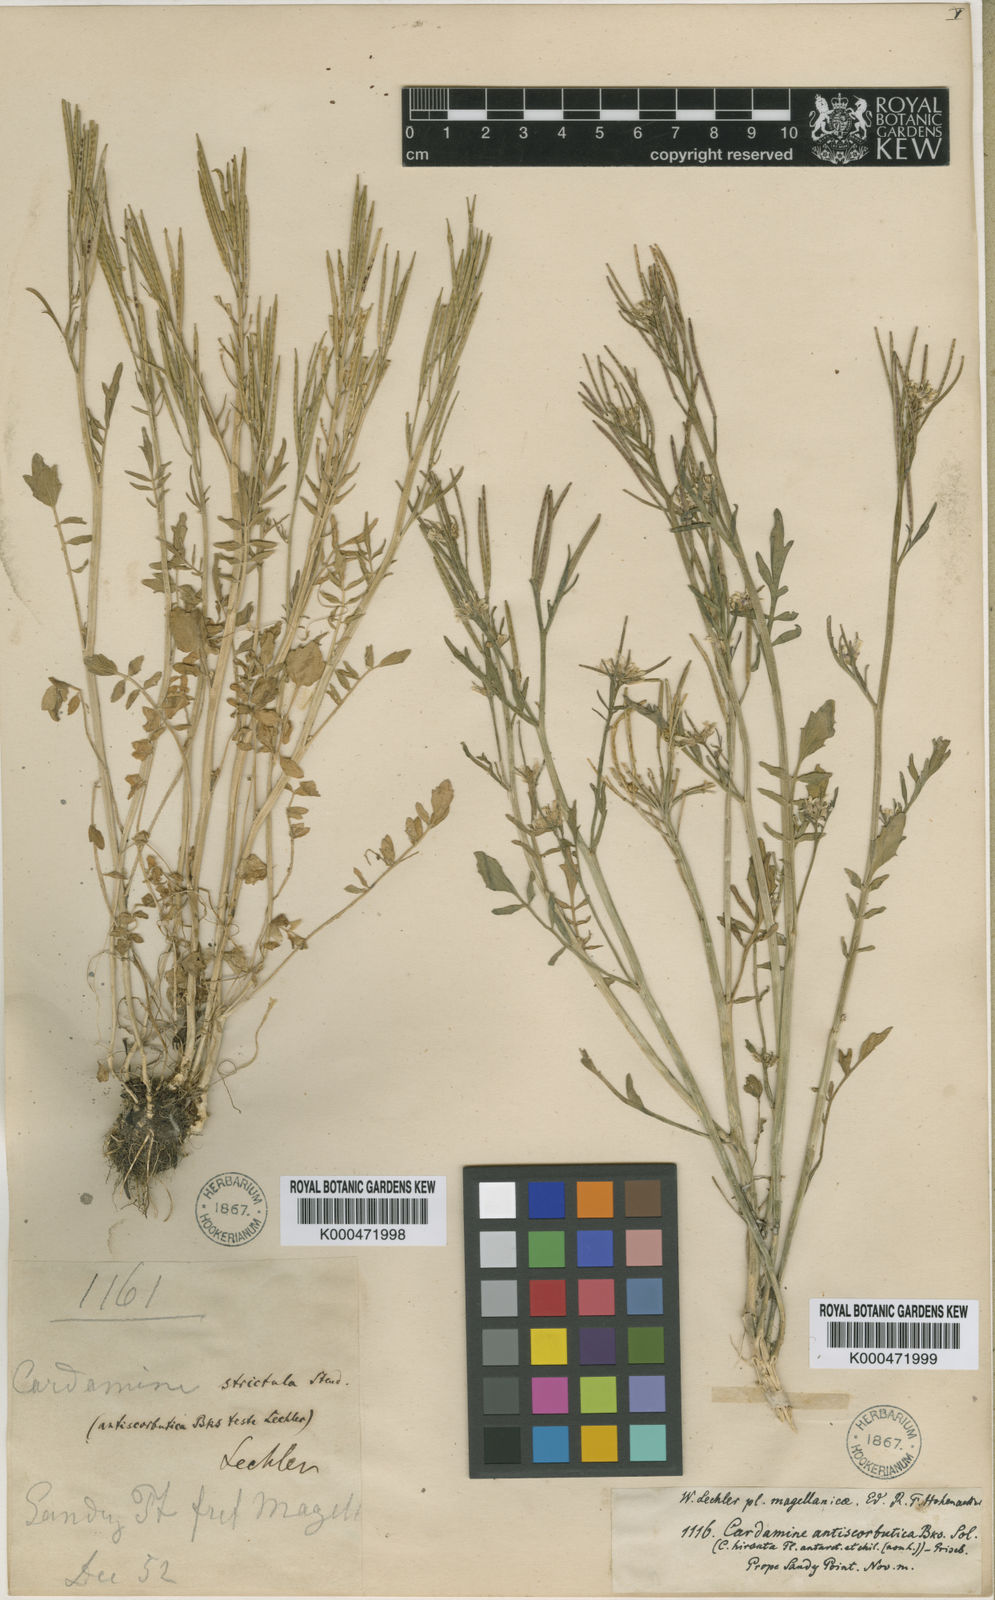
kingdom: Plantae
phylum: Tracheophyta
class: Magnoliopsida
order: Brassicales
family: Brassicaceae
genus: Cardamine
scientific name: Cardamine vulgaris
